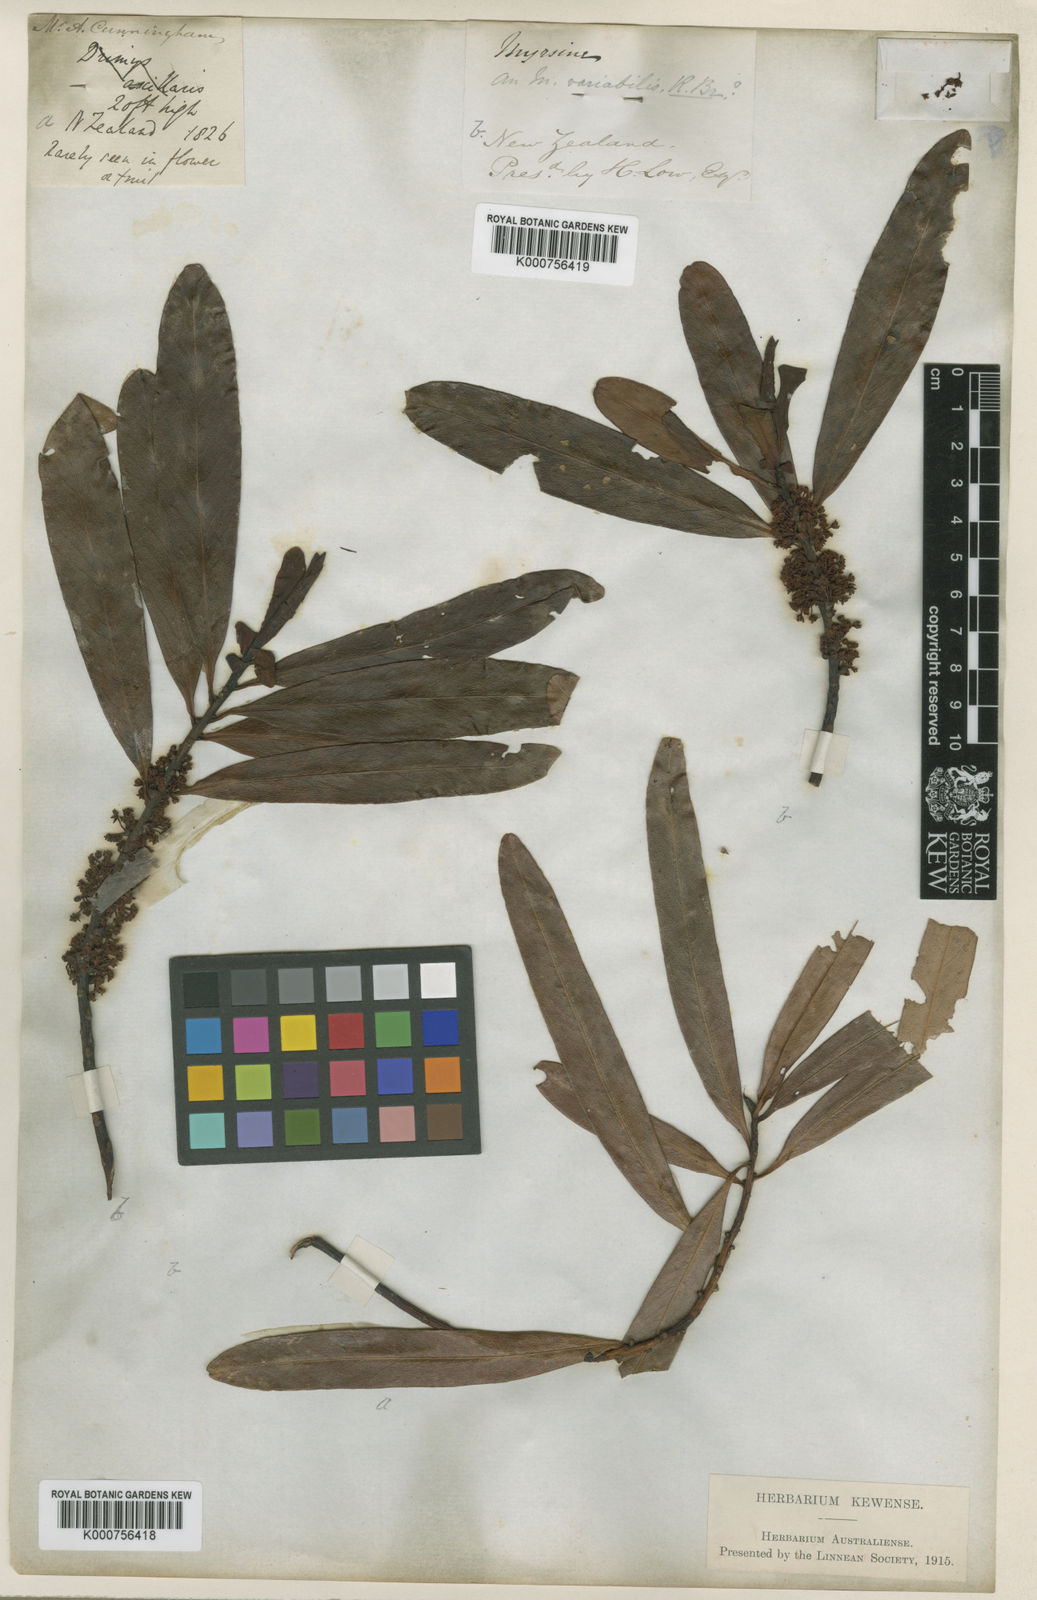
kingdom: Plantae
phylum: Tracheophyta
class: Magnoliopsida
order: Ericales
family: Primulaceae
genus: Myrsine
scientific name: Myrsine salicina
